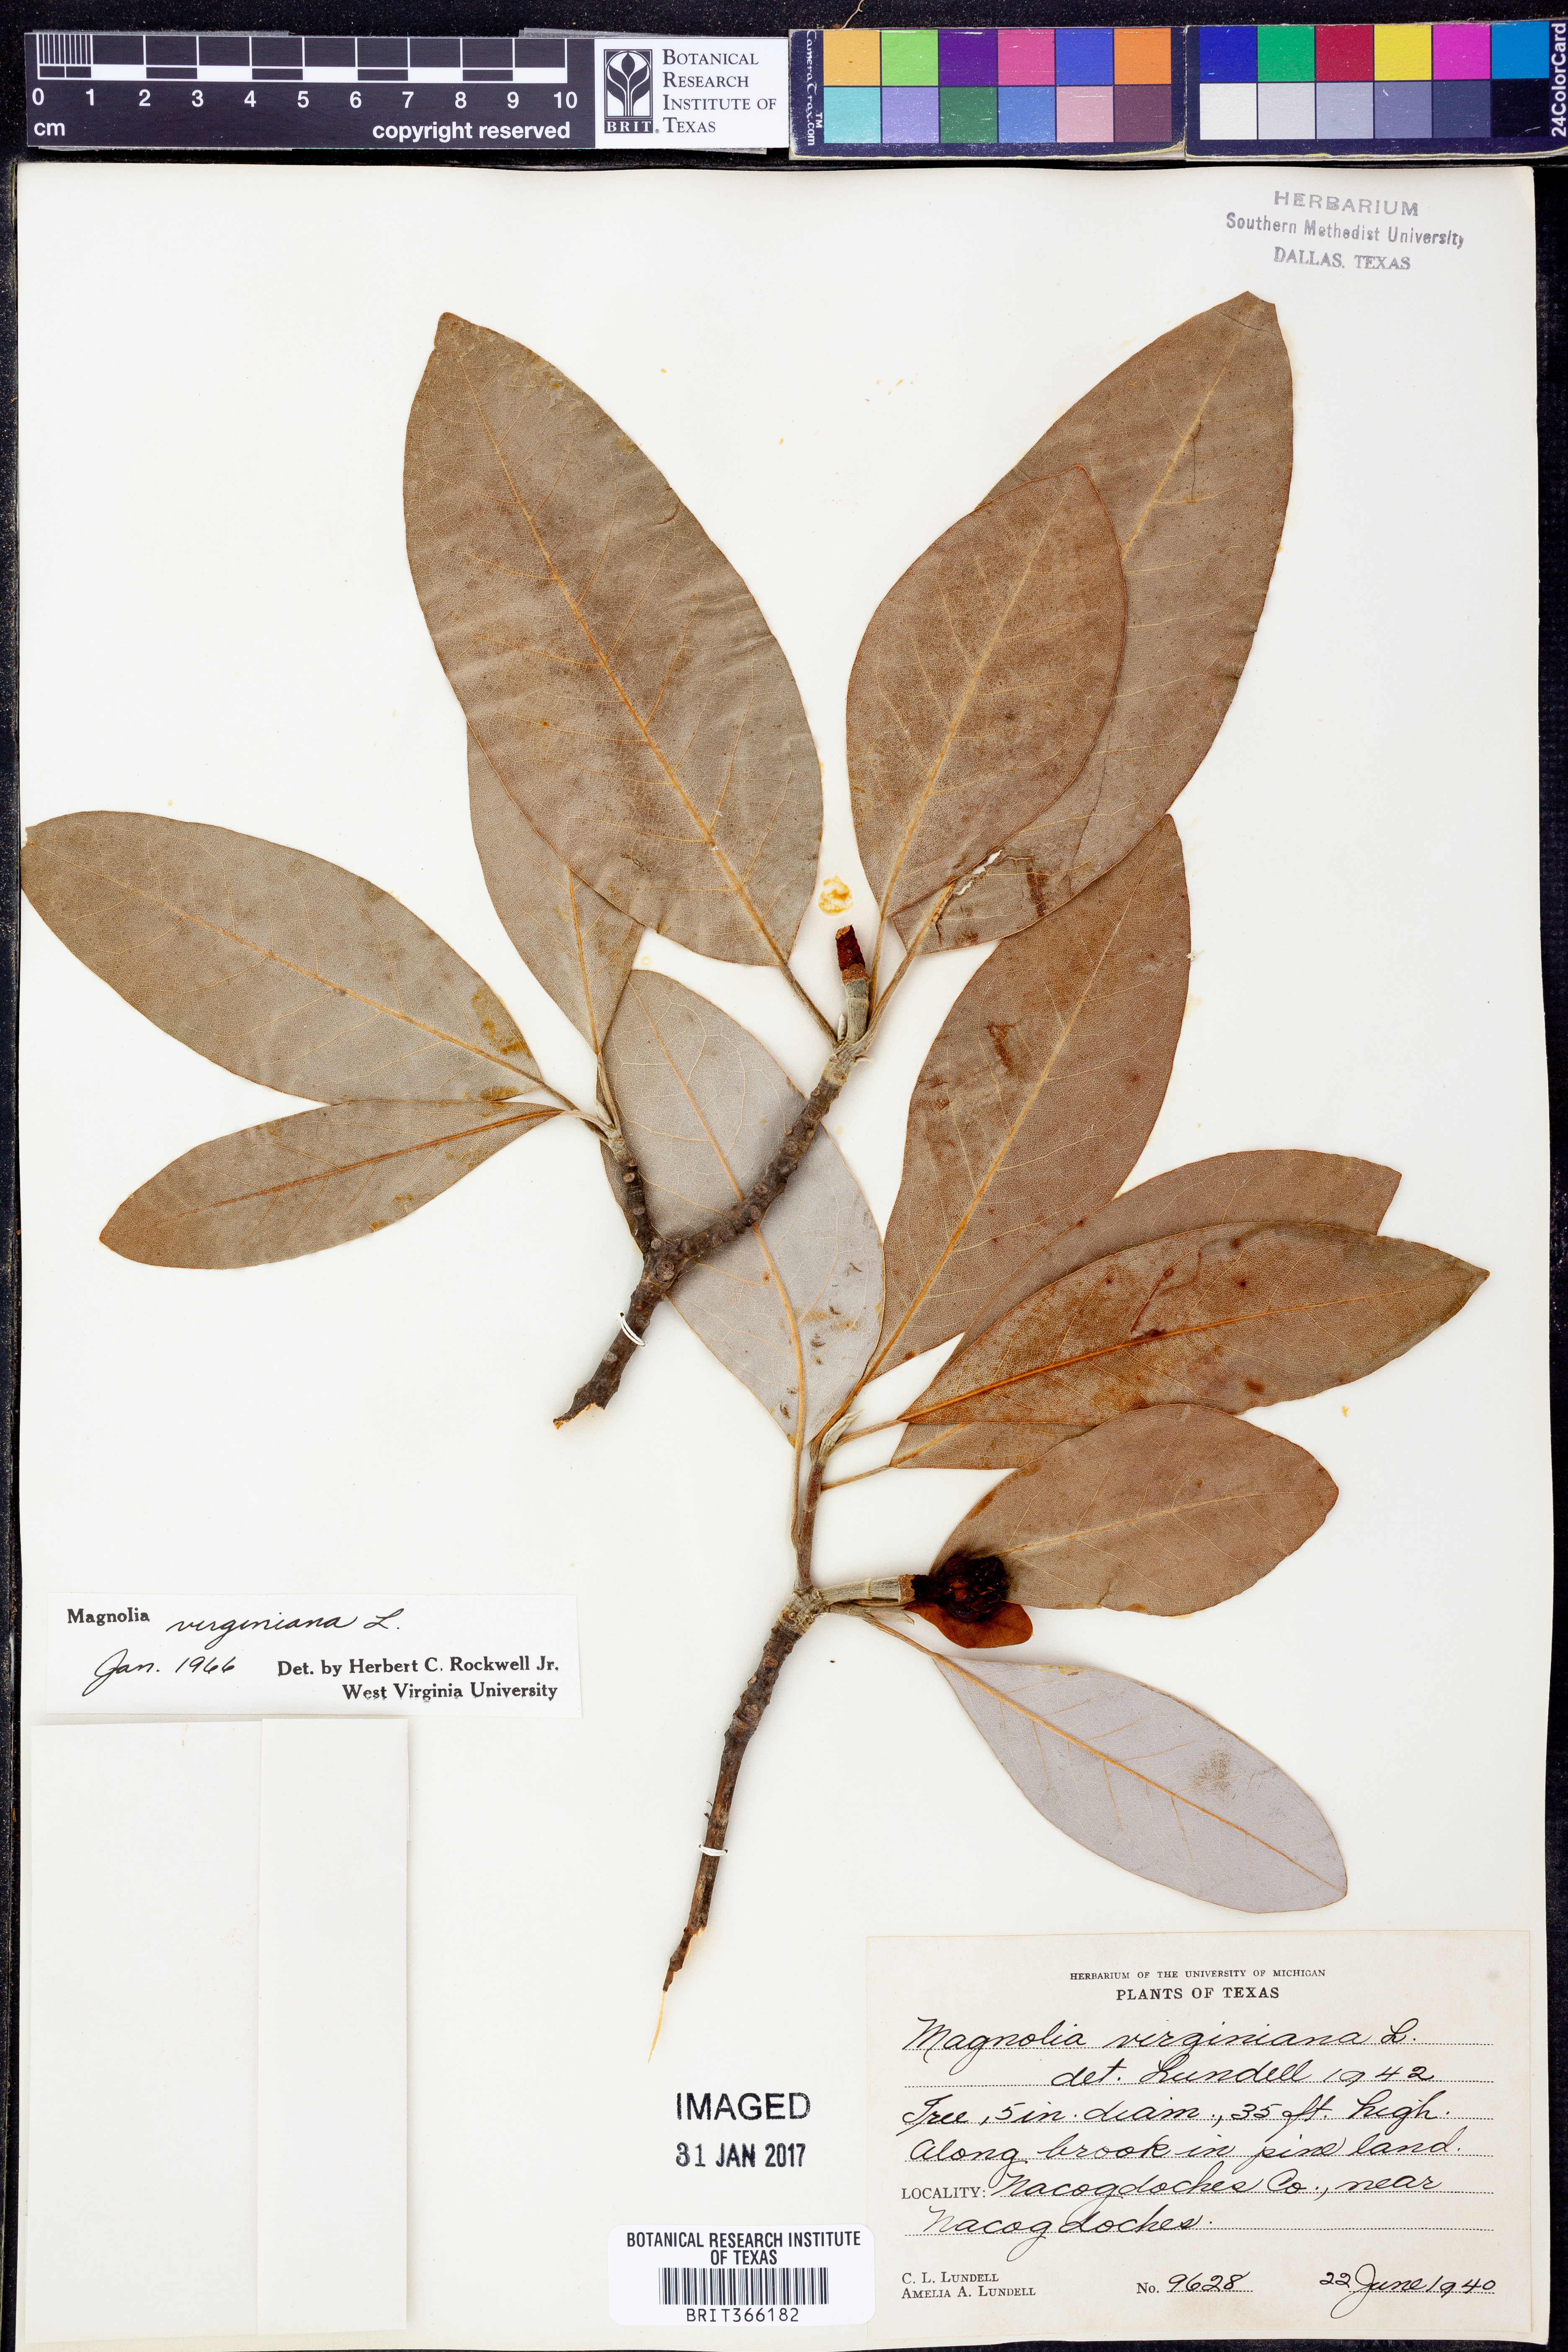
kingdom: Plantae
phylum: Tracheophyta
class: Magnoliopsida
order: Magnoliales
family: Magnoliaceae
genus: Magnolia
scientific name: Magnolia virginiana
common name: Swamp bay
